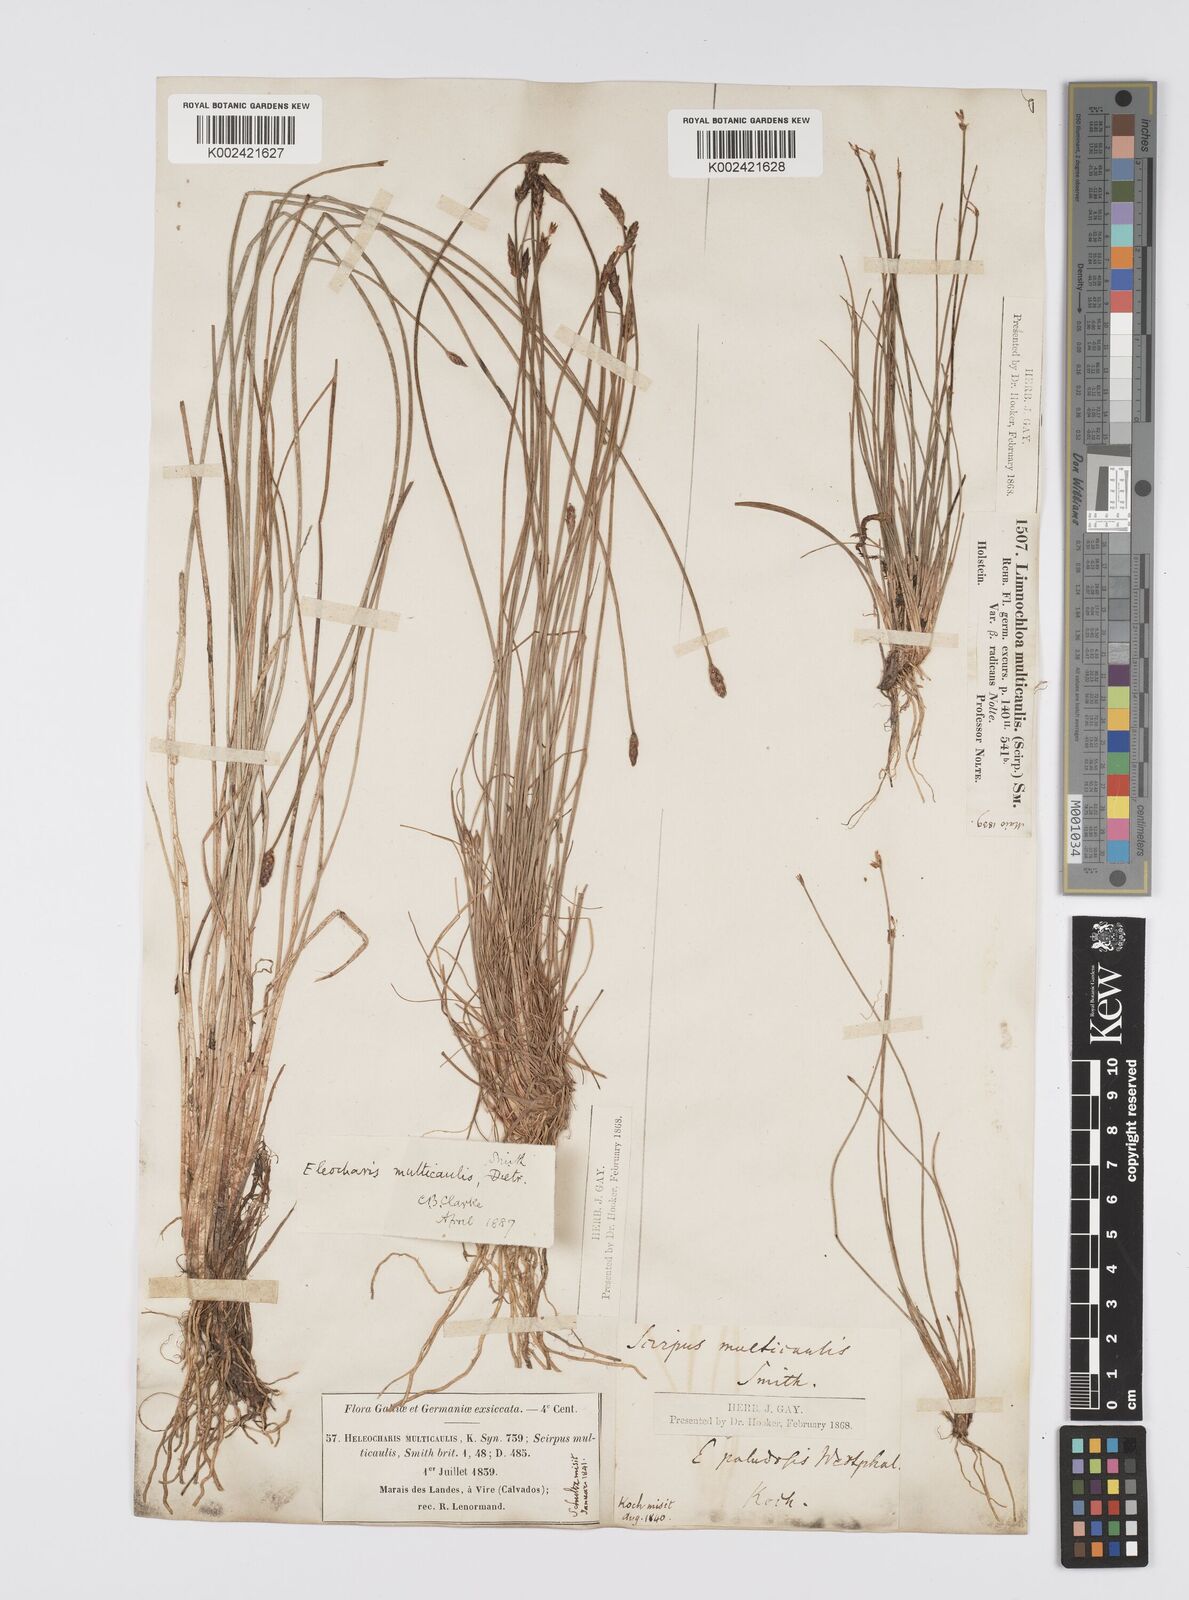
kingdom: Plantae
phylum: Tracheophyta
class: Liliopsida
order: Poales
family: Cyperaceae
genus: Eleocharis
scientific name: Eleocharis multicaulis
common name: Many-stalked spike-rush
